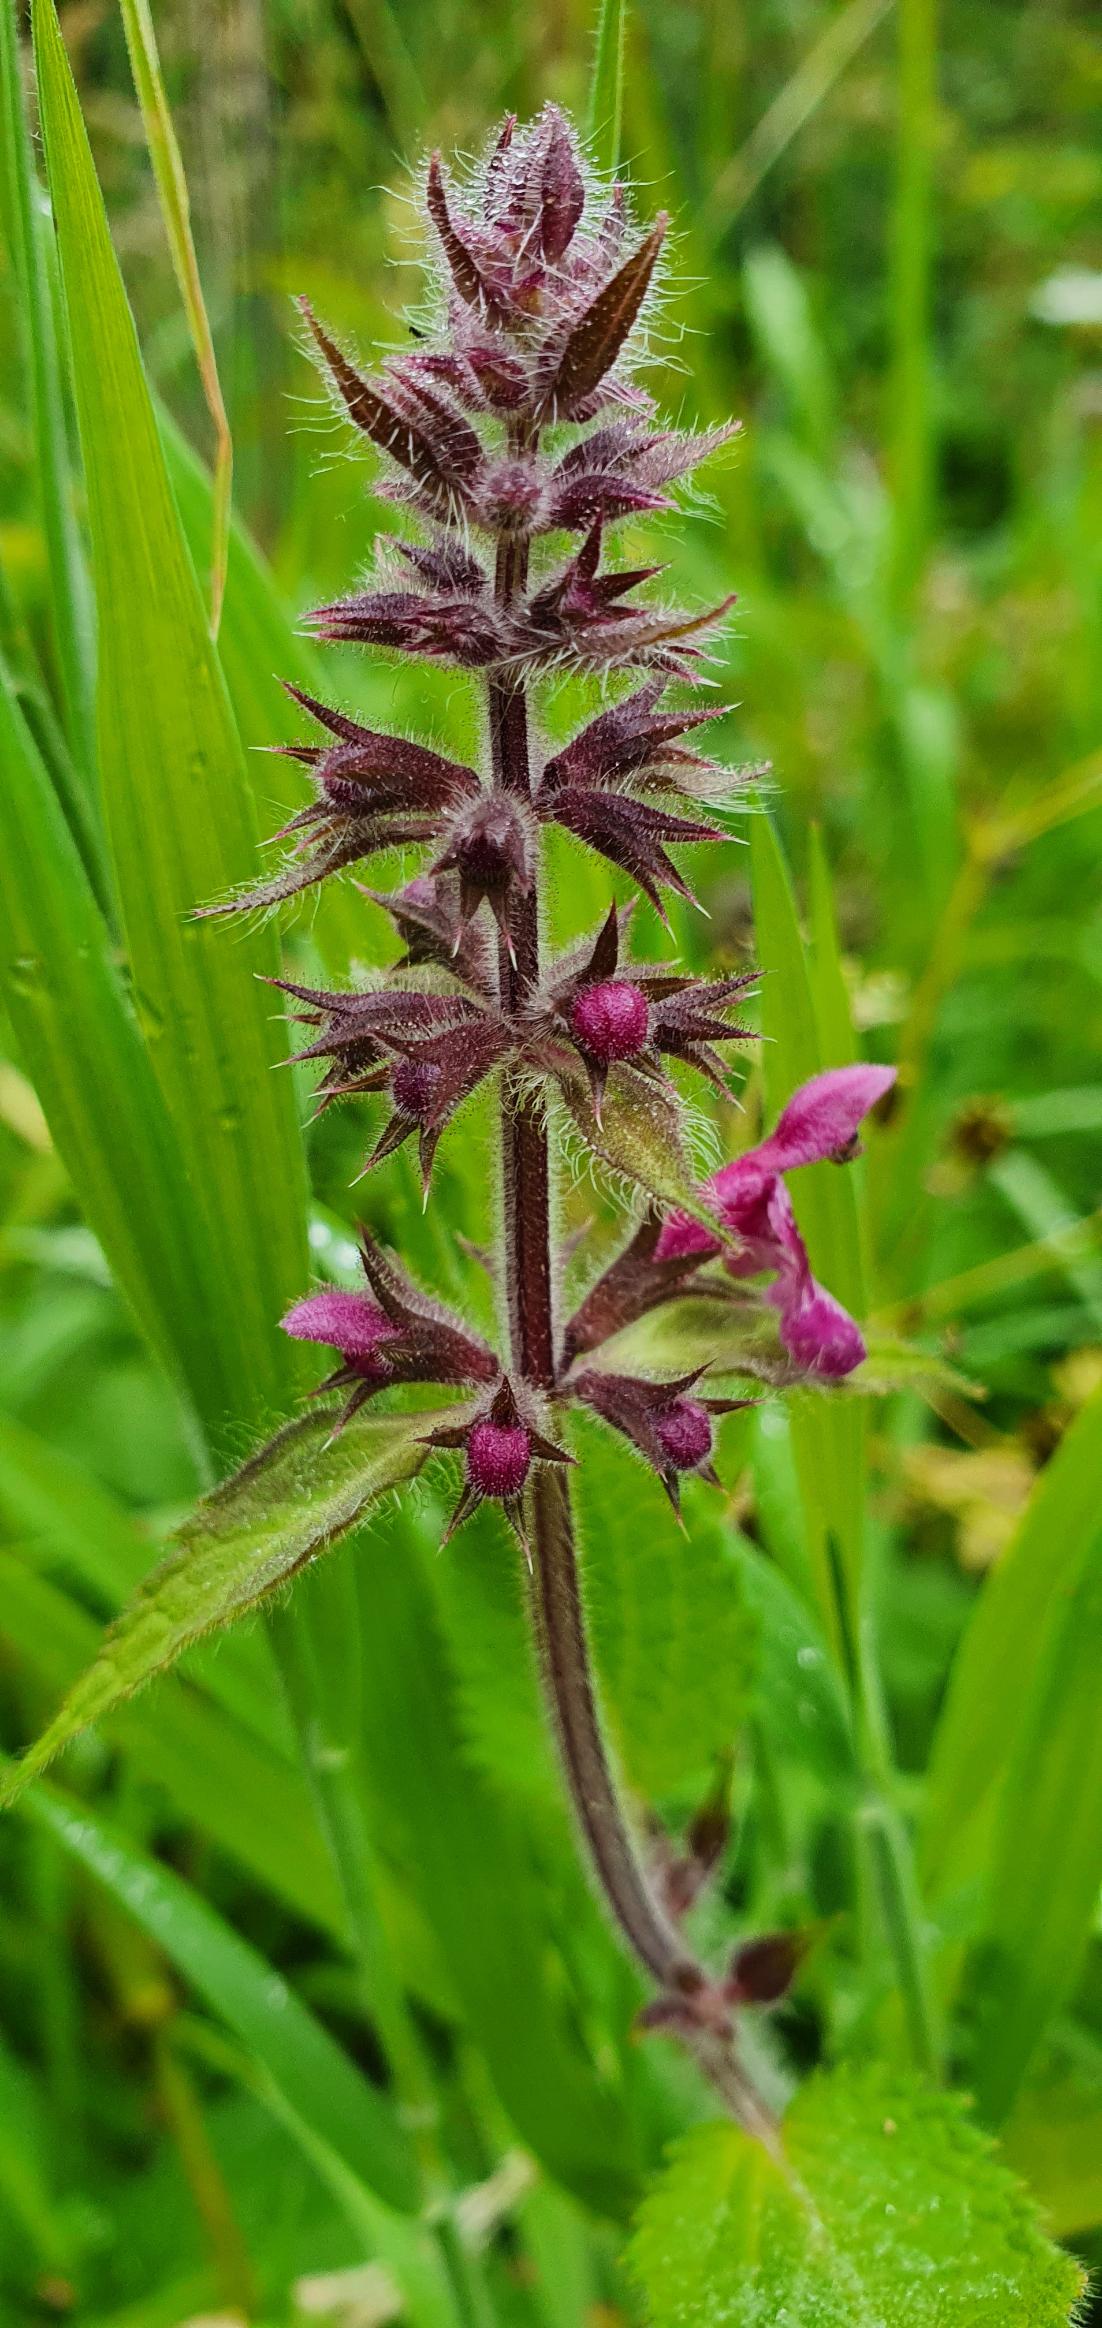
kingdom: Plantae
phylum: Tracheophyta
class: Magnoliopsida
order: Lamiales
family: Lamiaceae
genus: Stachys
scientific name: Stachys sylvatica
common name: Skov-galtetand
